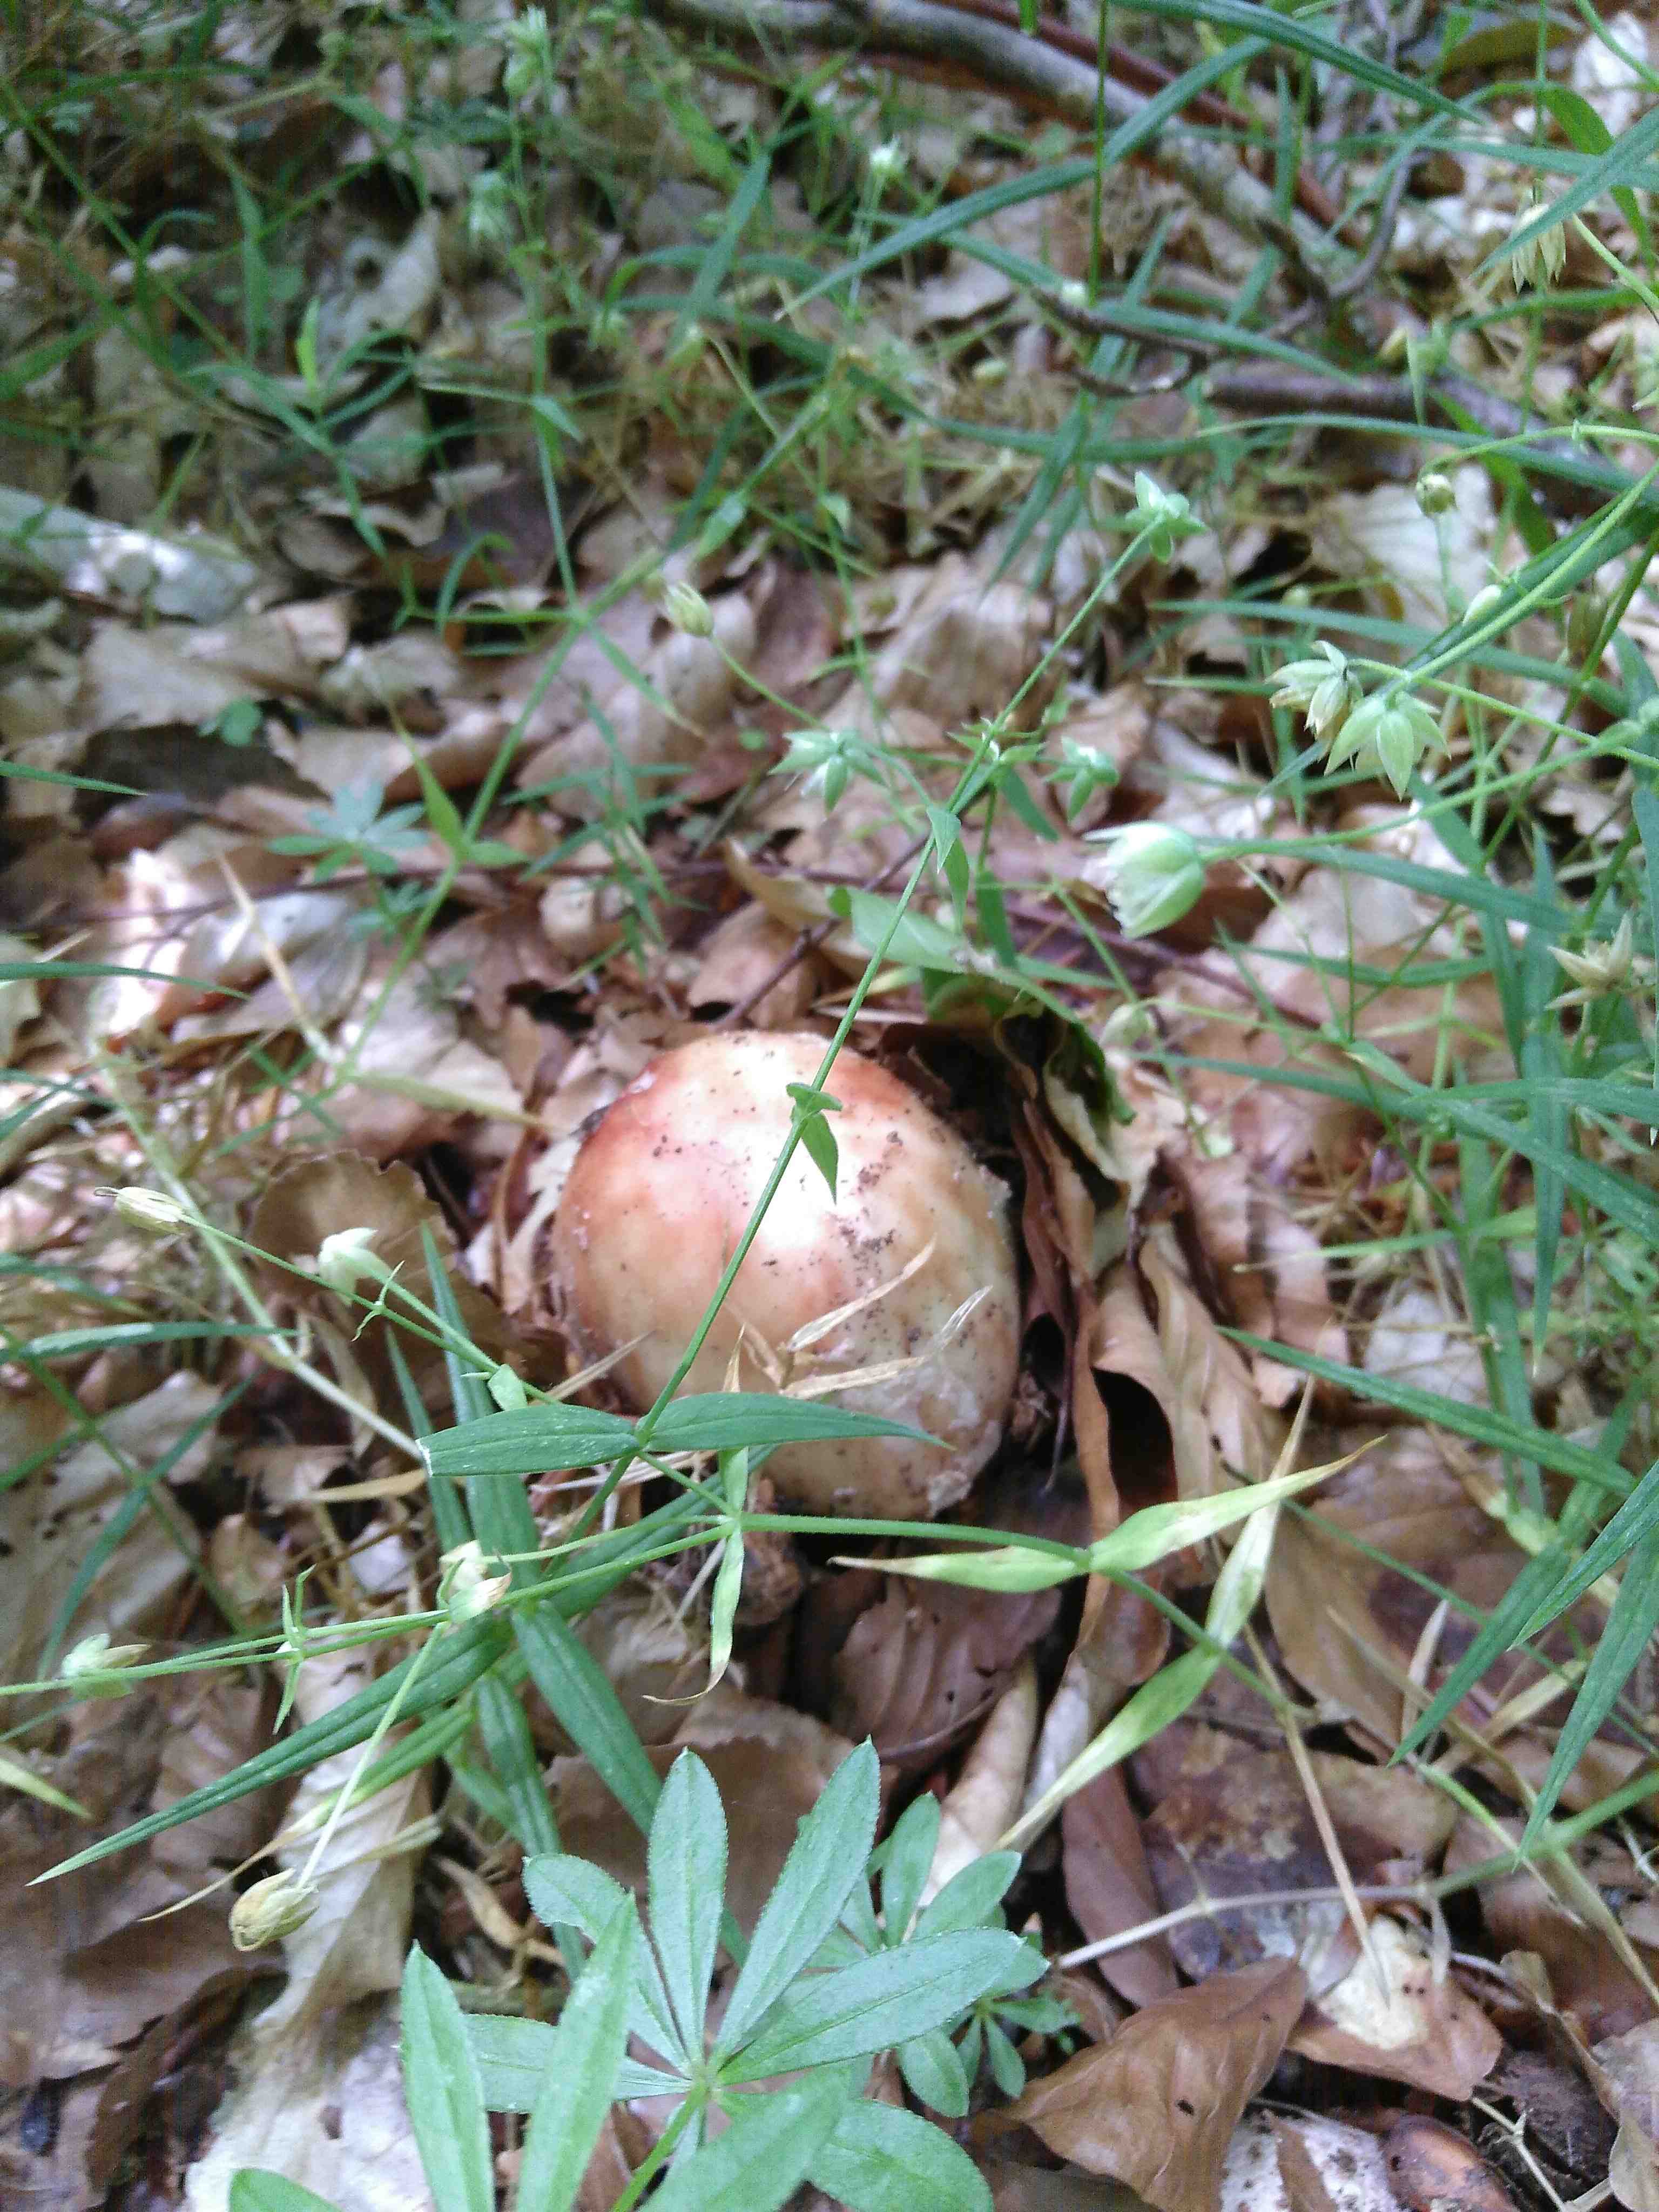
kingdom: Fungi
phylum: Basidiomycota
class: Agaricomycetes
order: Agaricales
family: Amanitaceae
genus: Amanita
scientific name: Amanita rubescens
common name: rødmende fluesvamp
